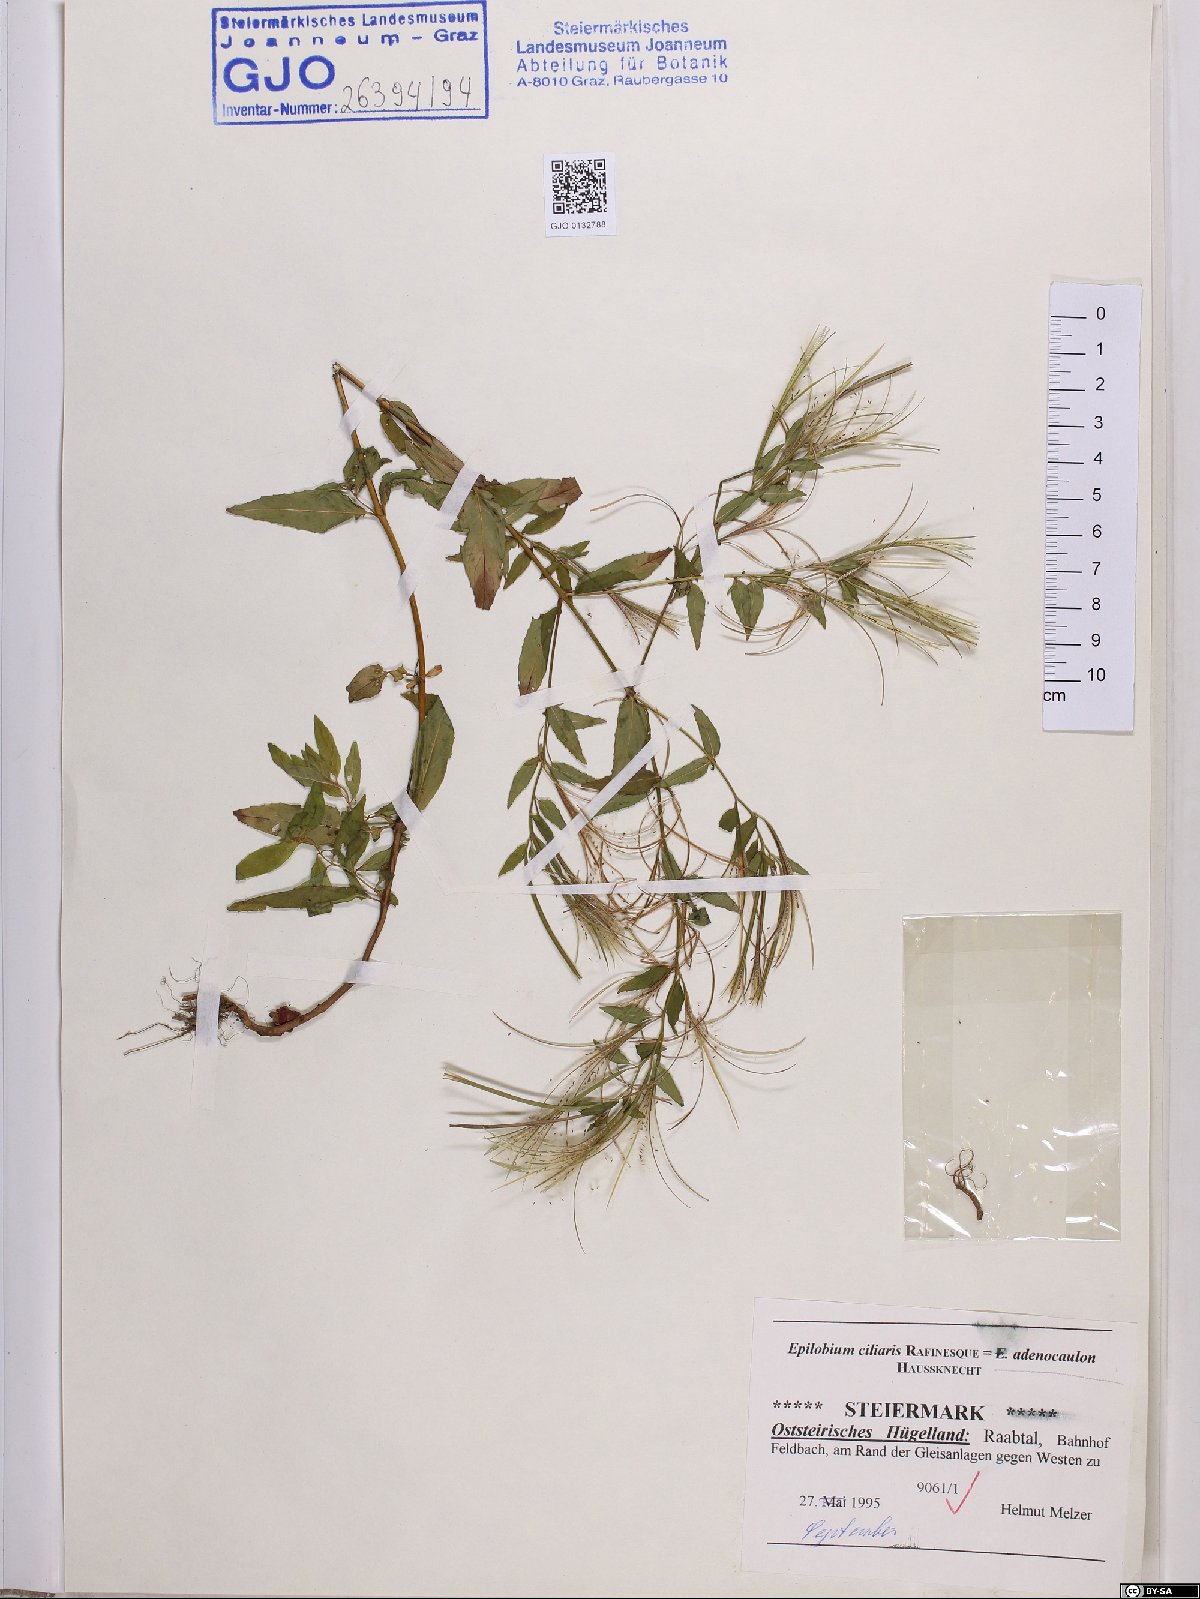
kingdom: Plantae
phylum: Tracheophyta
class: Magnoliopsida
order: Myrtales
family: Onagraceae
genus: Epilobium
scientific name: Epilobium ciliatum
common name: American willowherb
